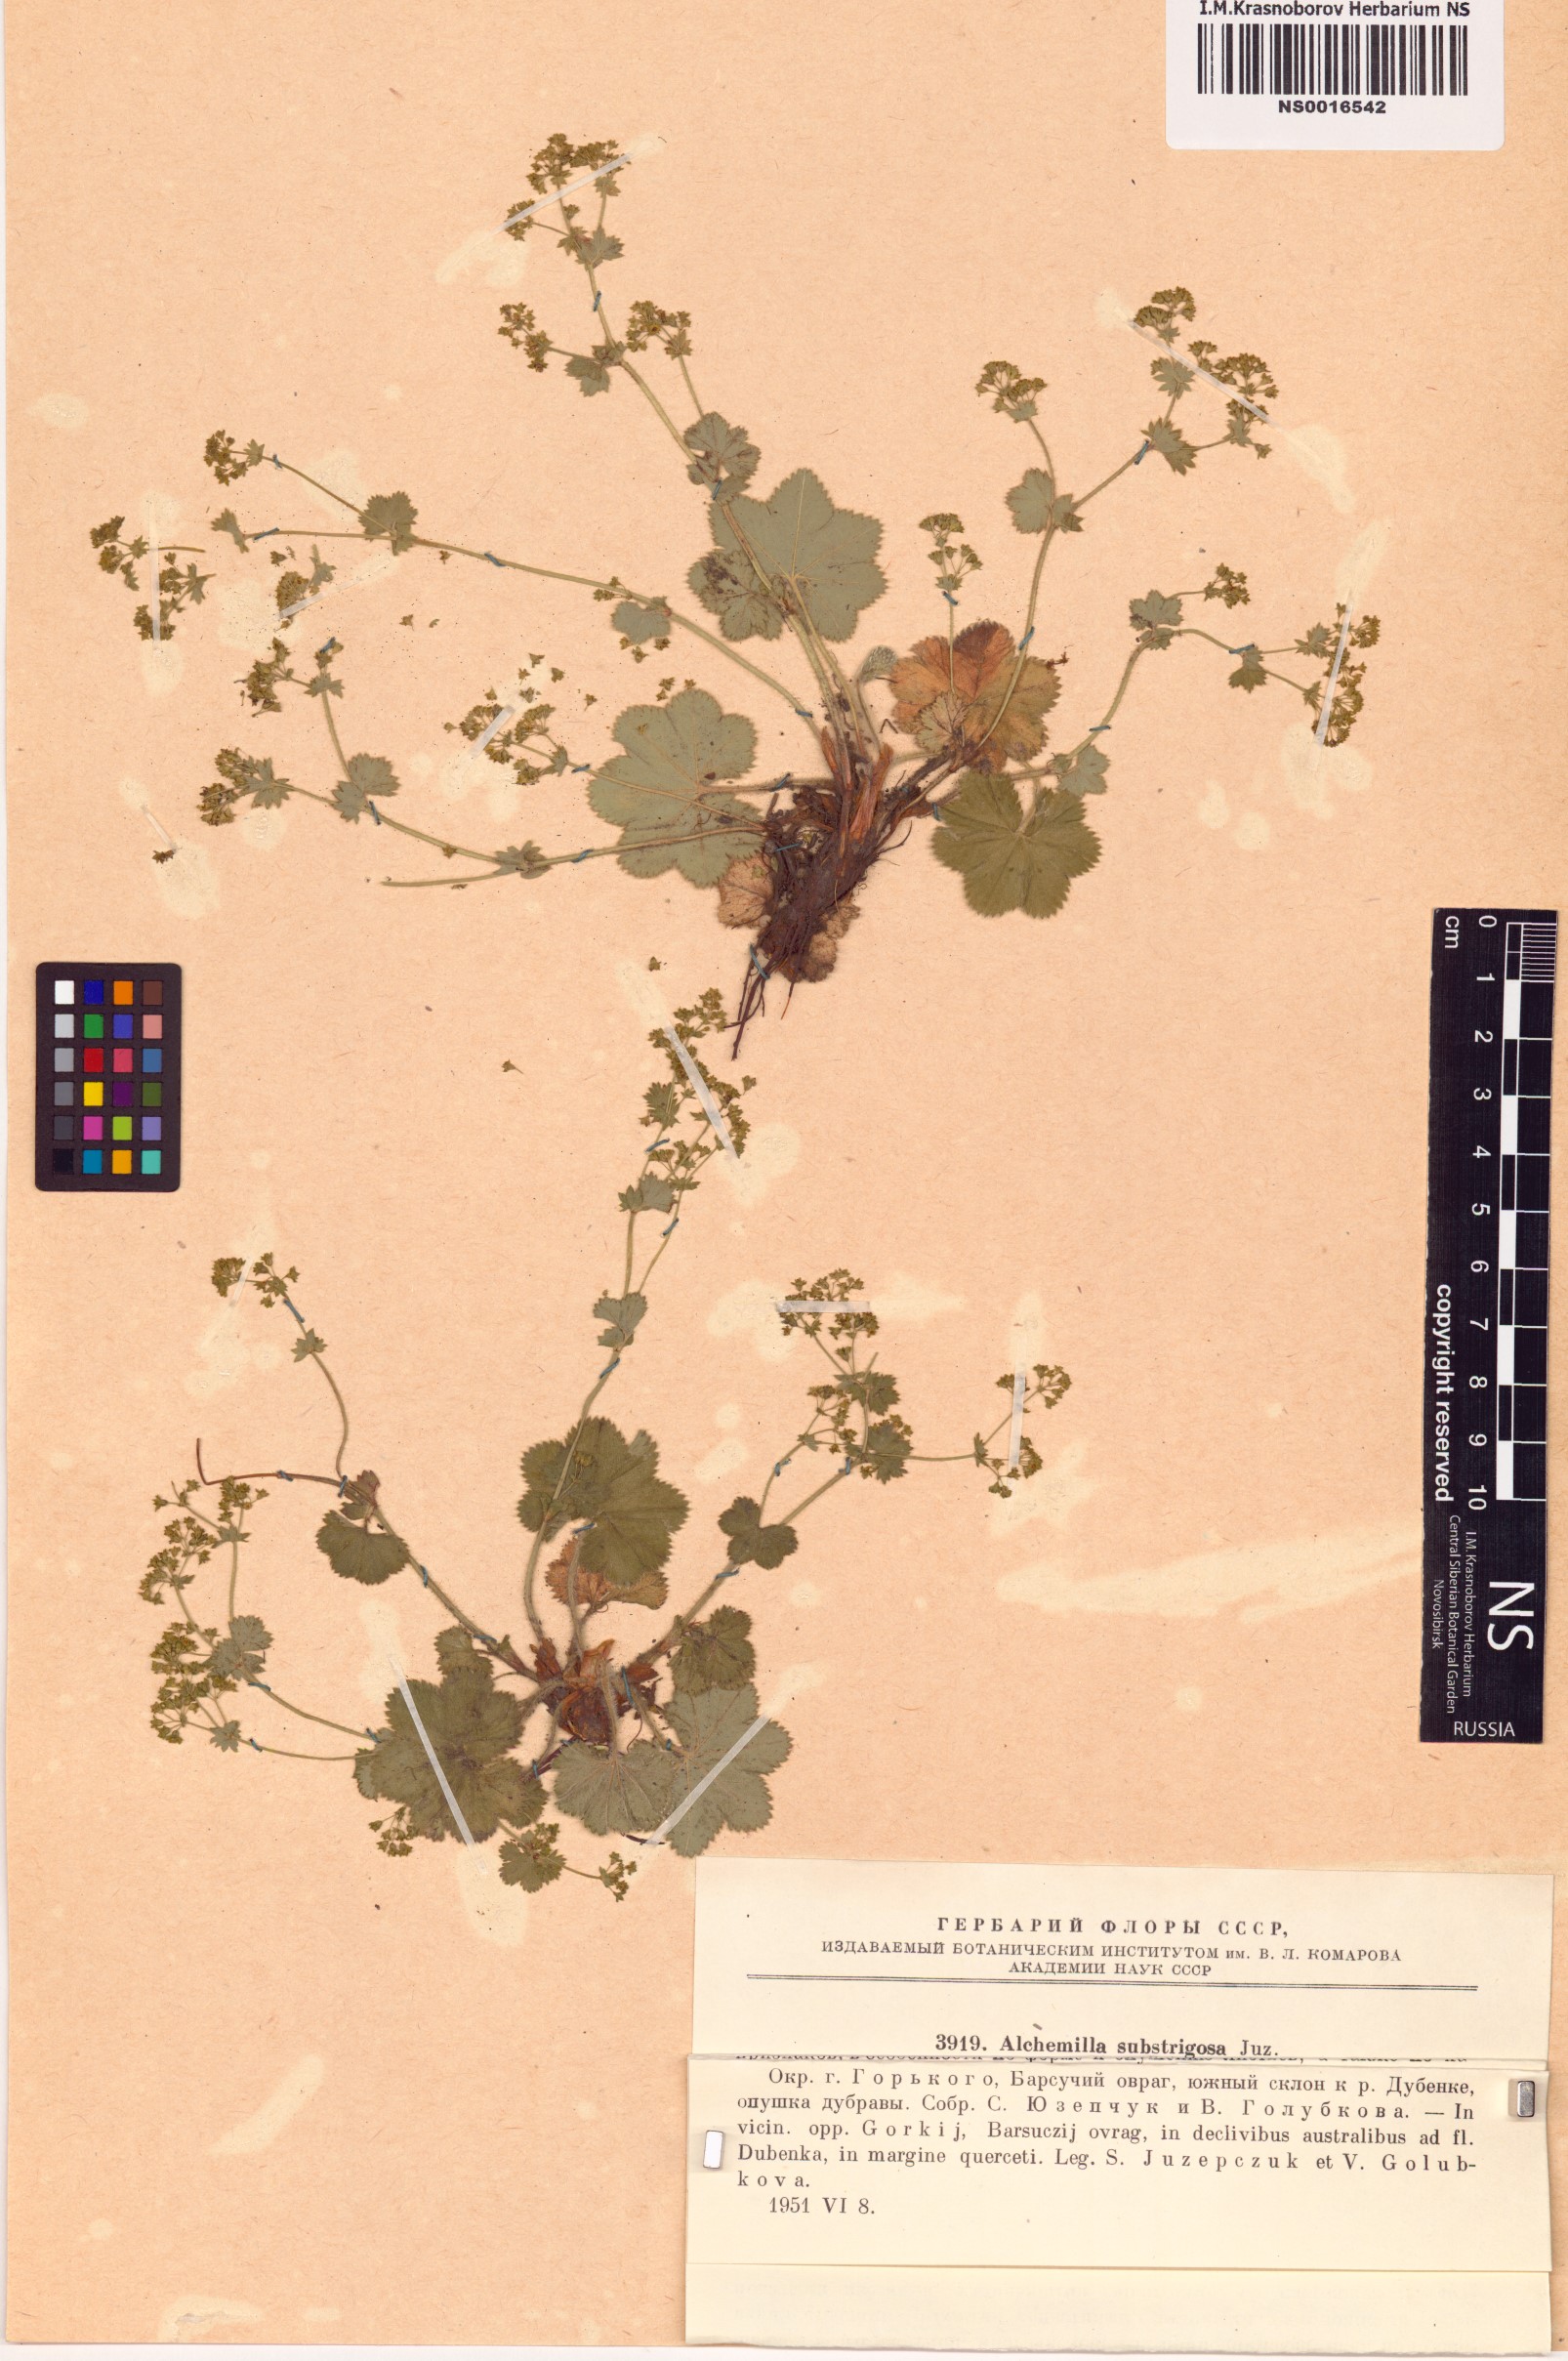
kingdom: Plantae
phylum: Tracheophyta
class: Magnoliopsida
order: Rosales
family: Rosaceae
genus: Alchemilla
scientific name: Alchemilla substrigosa
